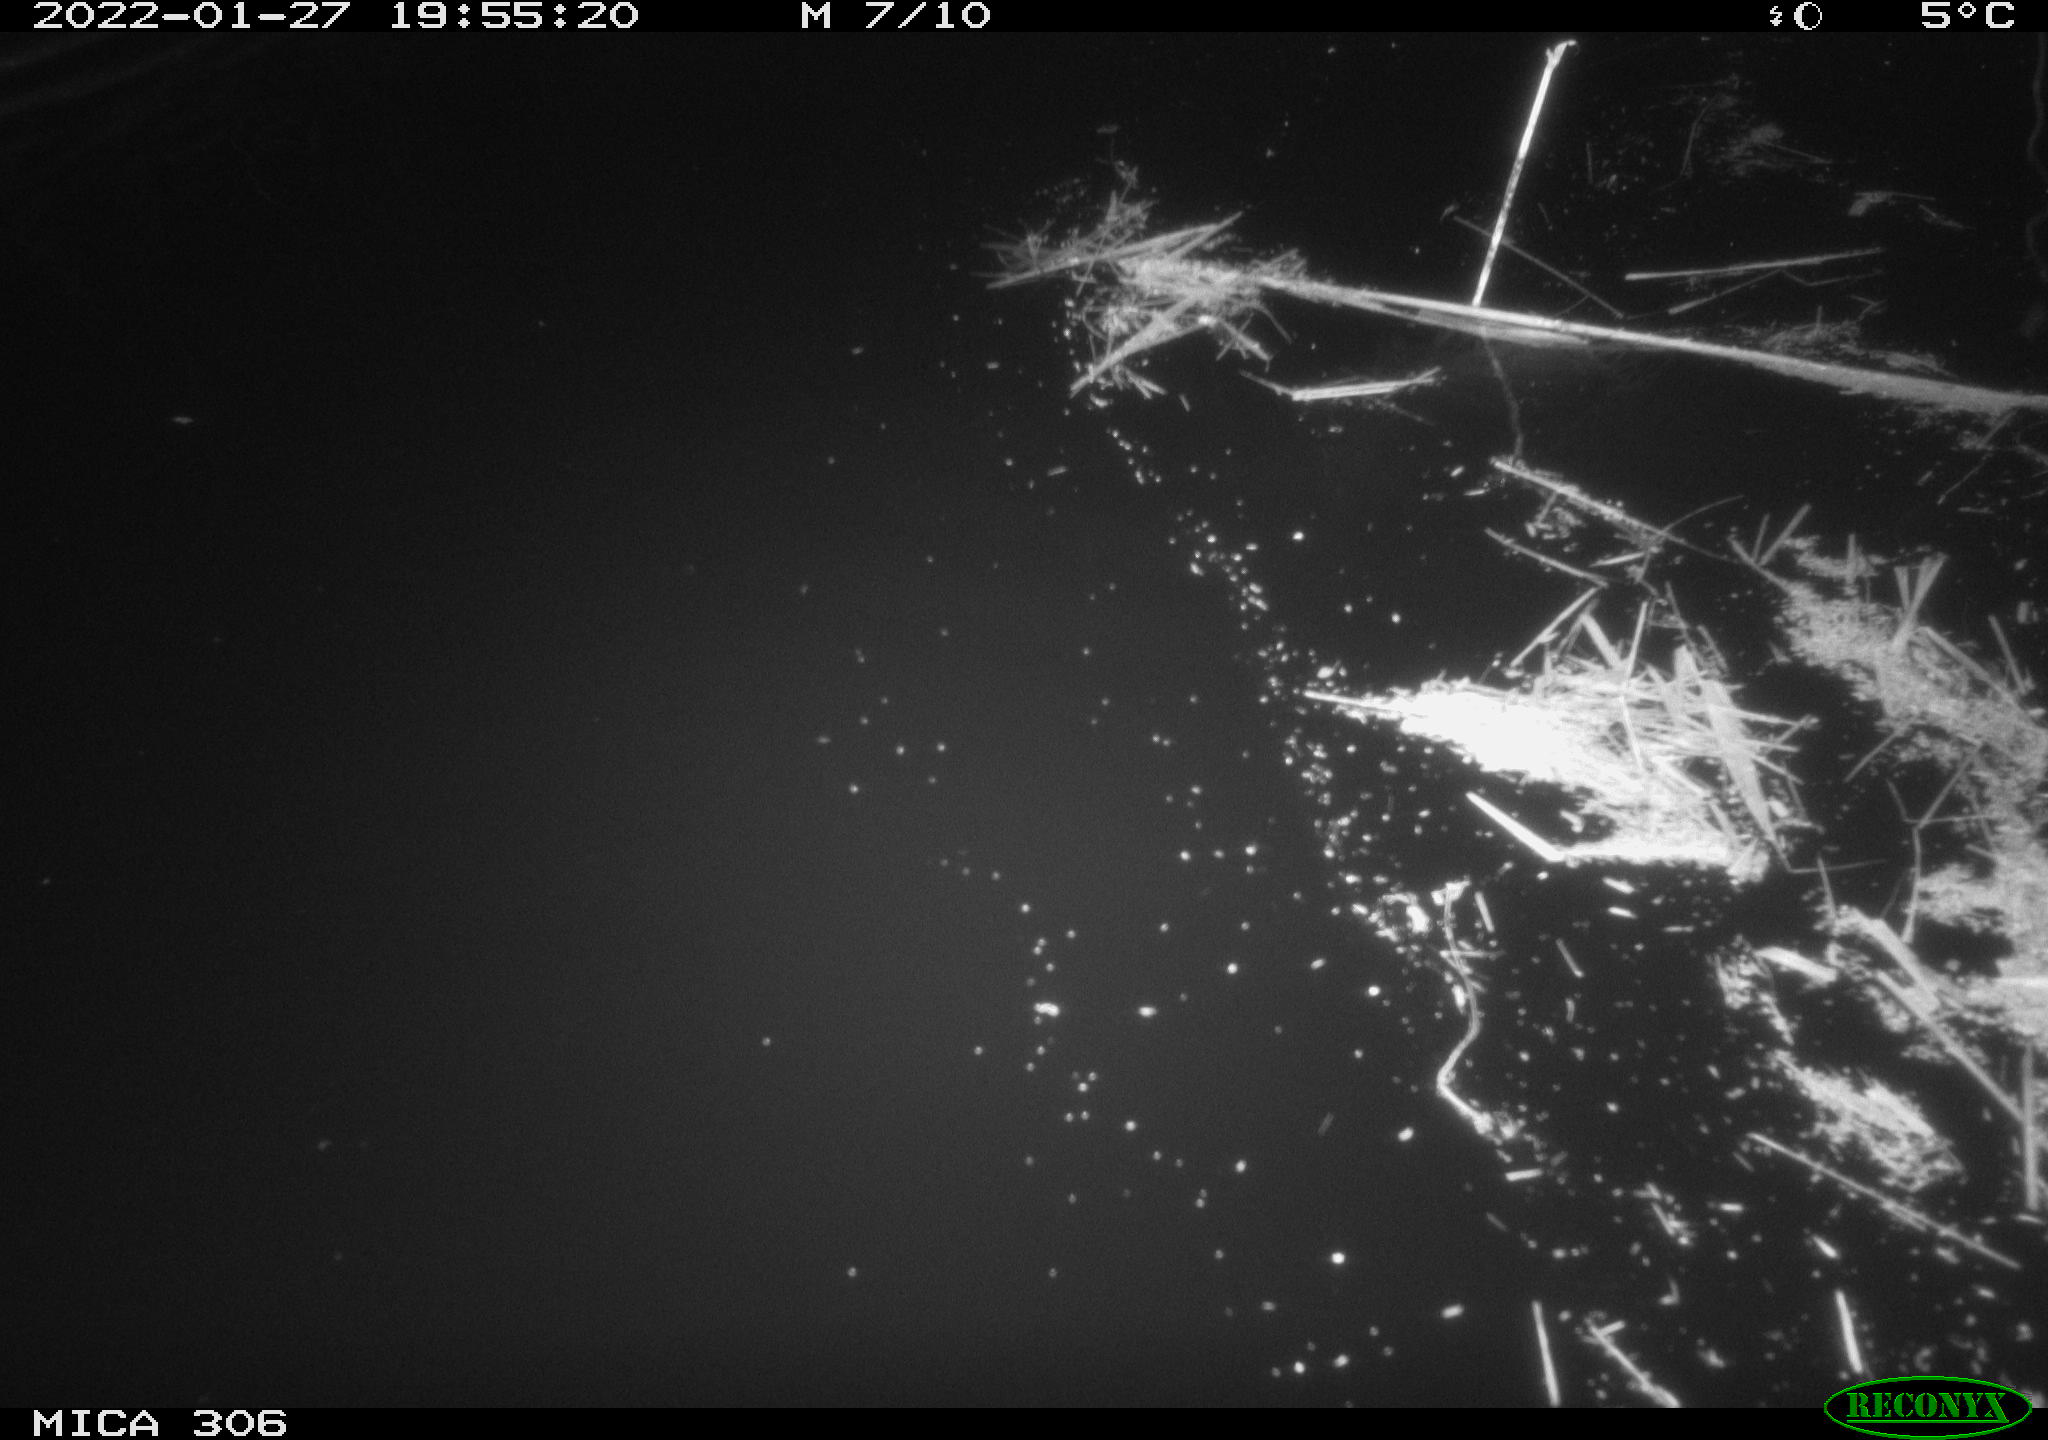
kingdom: Animalia
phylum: Chordata
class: Mammalia
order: Rodentia
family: Cricetidae
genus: Ondatra
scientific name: Ondatra zibethicus
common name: Muskrat
